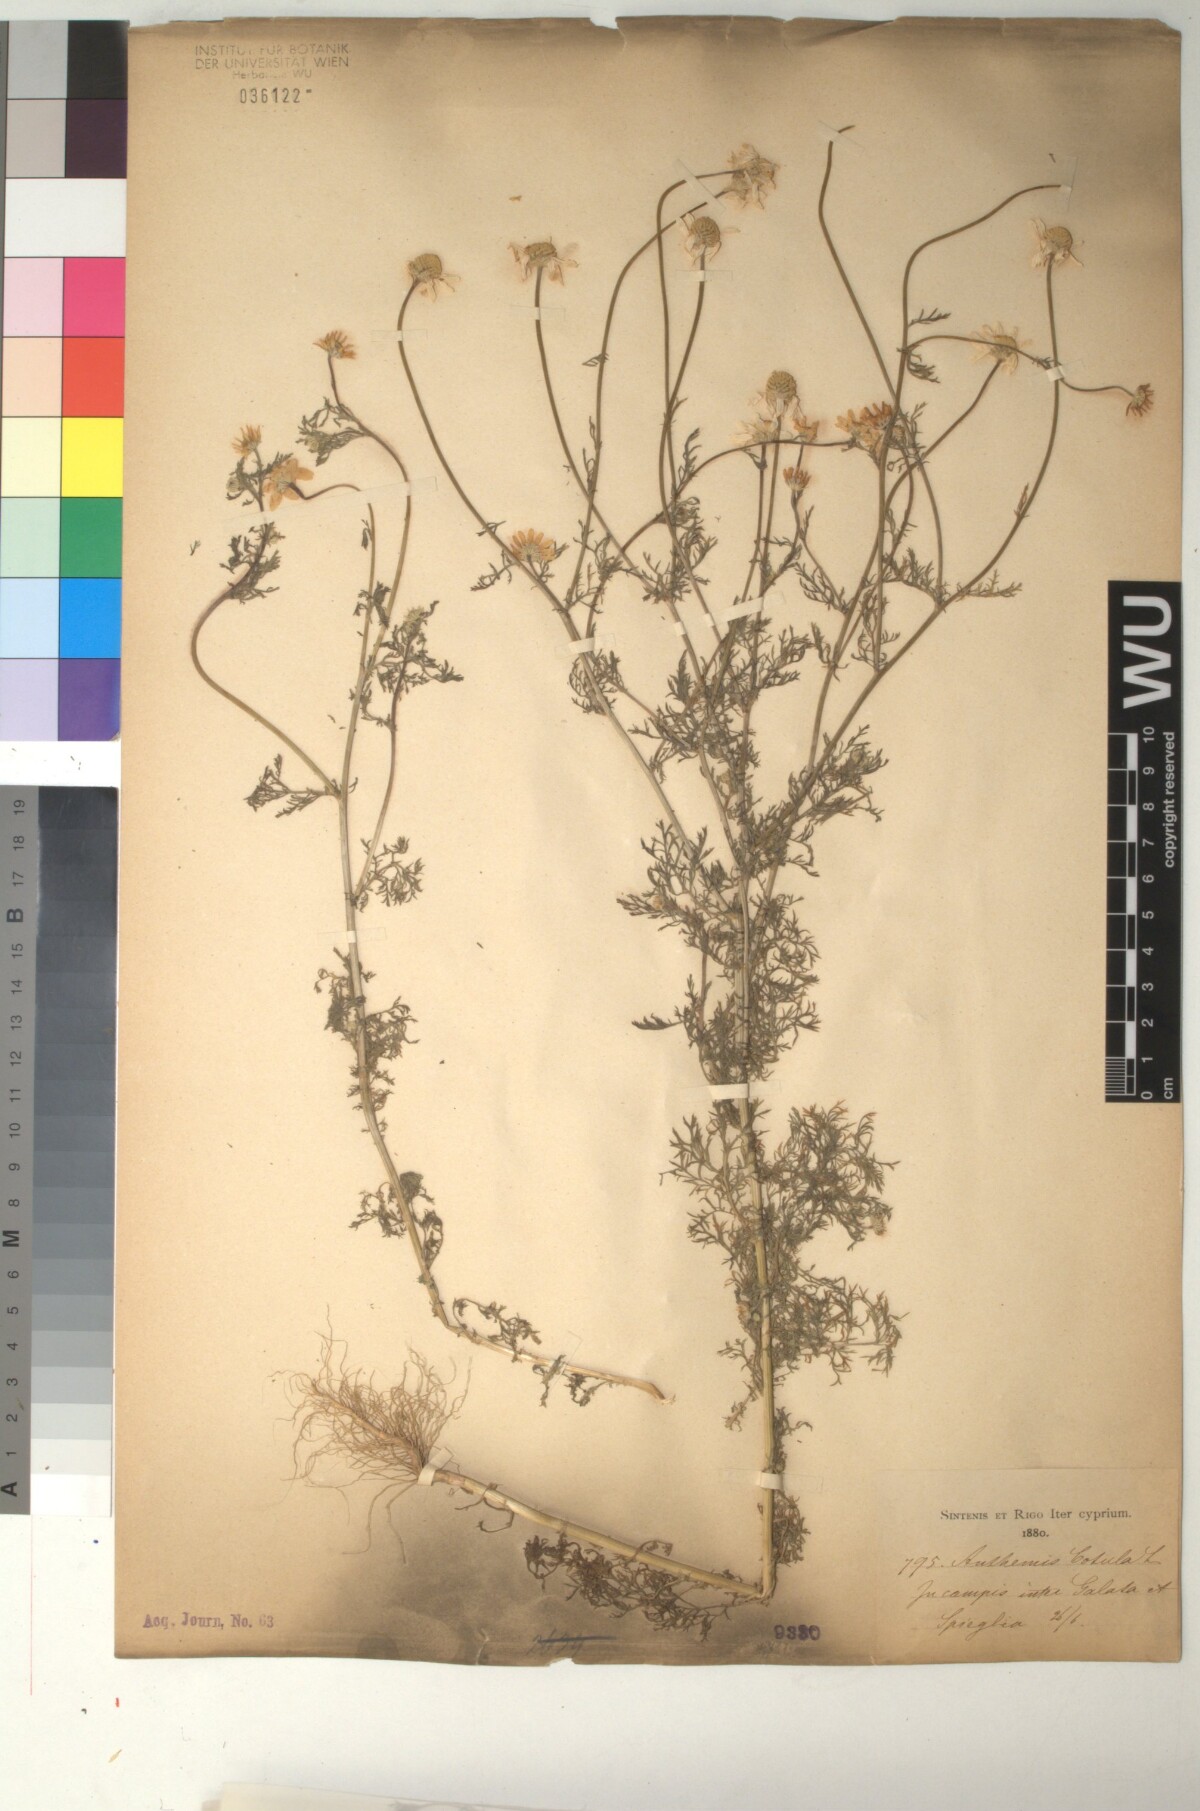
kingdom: Plantae
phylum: Tracheophyta
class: Magnoliopsida
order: Asterales
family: Asteraceae
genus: Anthemis
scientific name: Anthemis cotula
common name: Stinking chamomile
